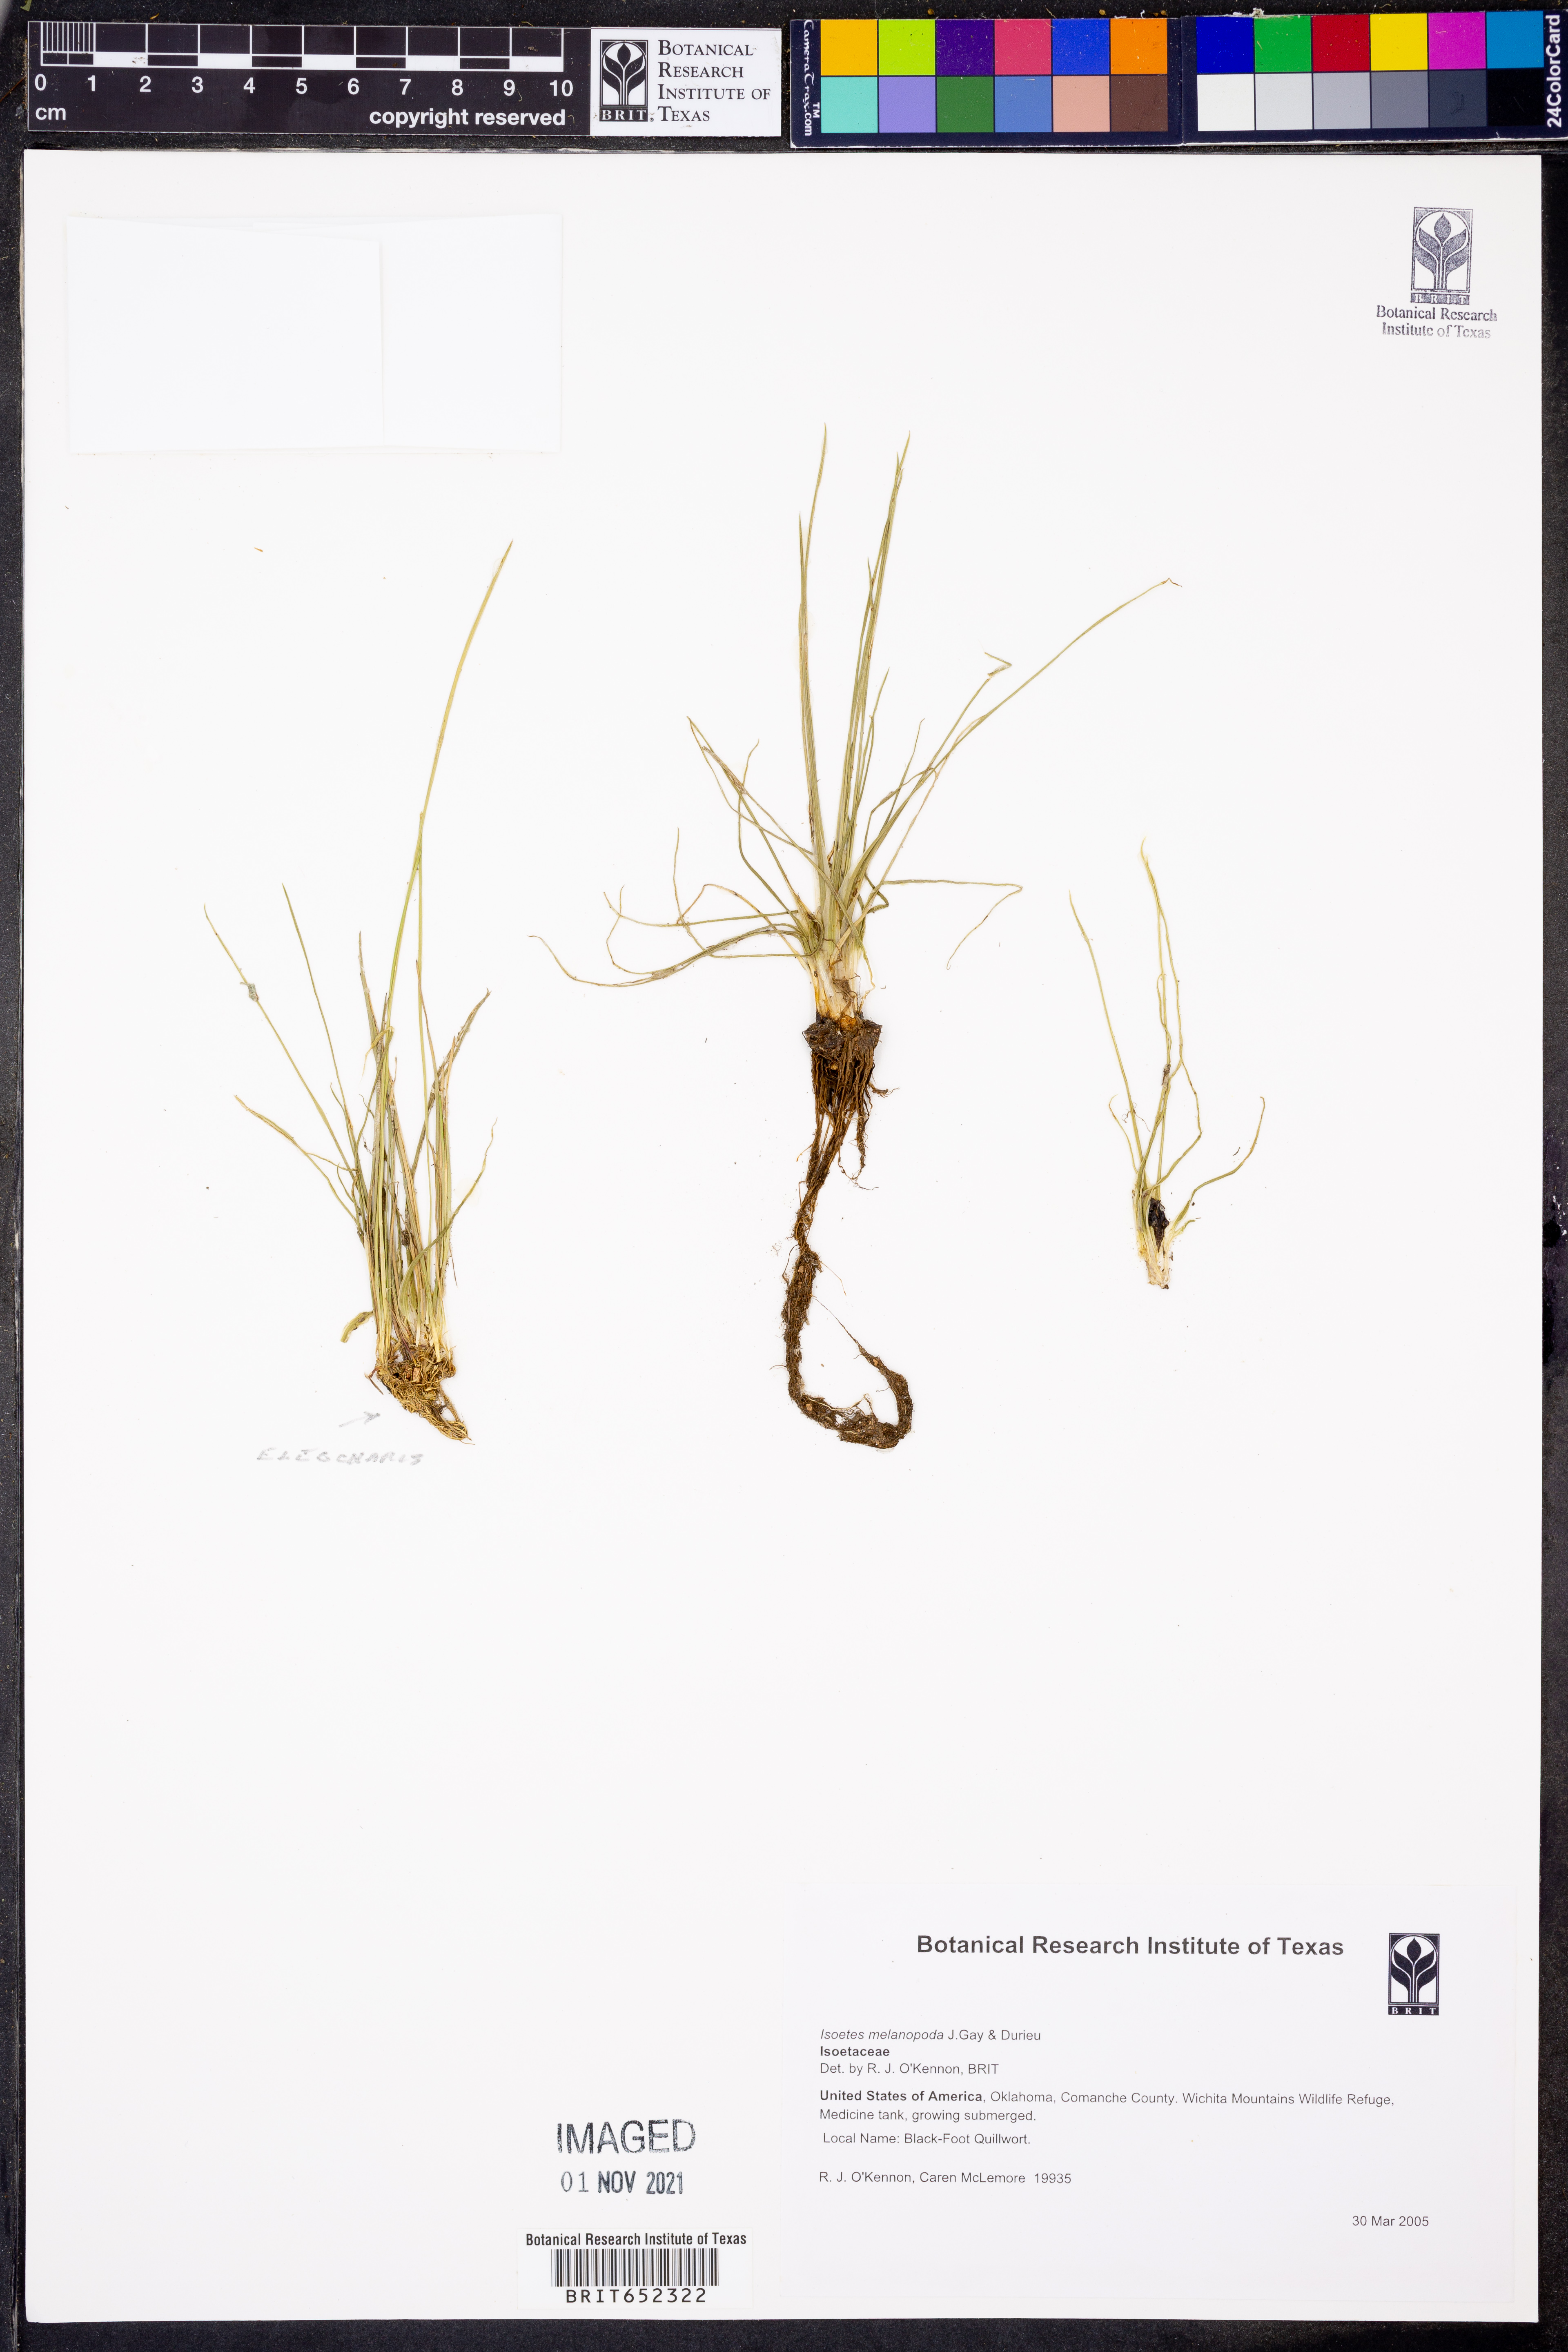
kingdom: Plantae
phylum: Tracheophyta
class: Lycopodiopsida
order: Isoetales
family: Isoetaceae
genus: Isoetes
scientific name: Isoetes melanopoda
